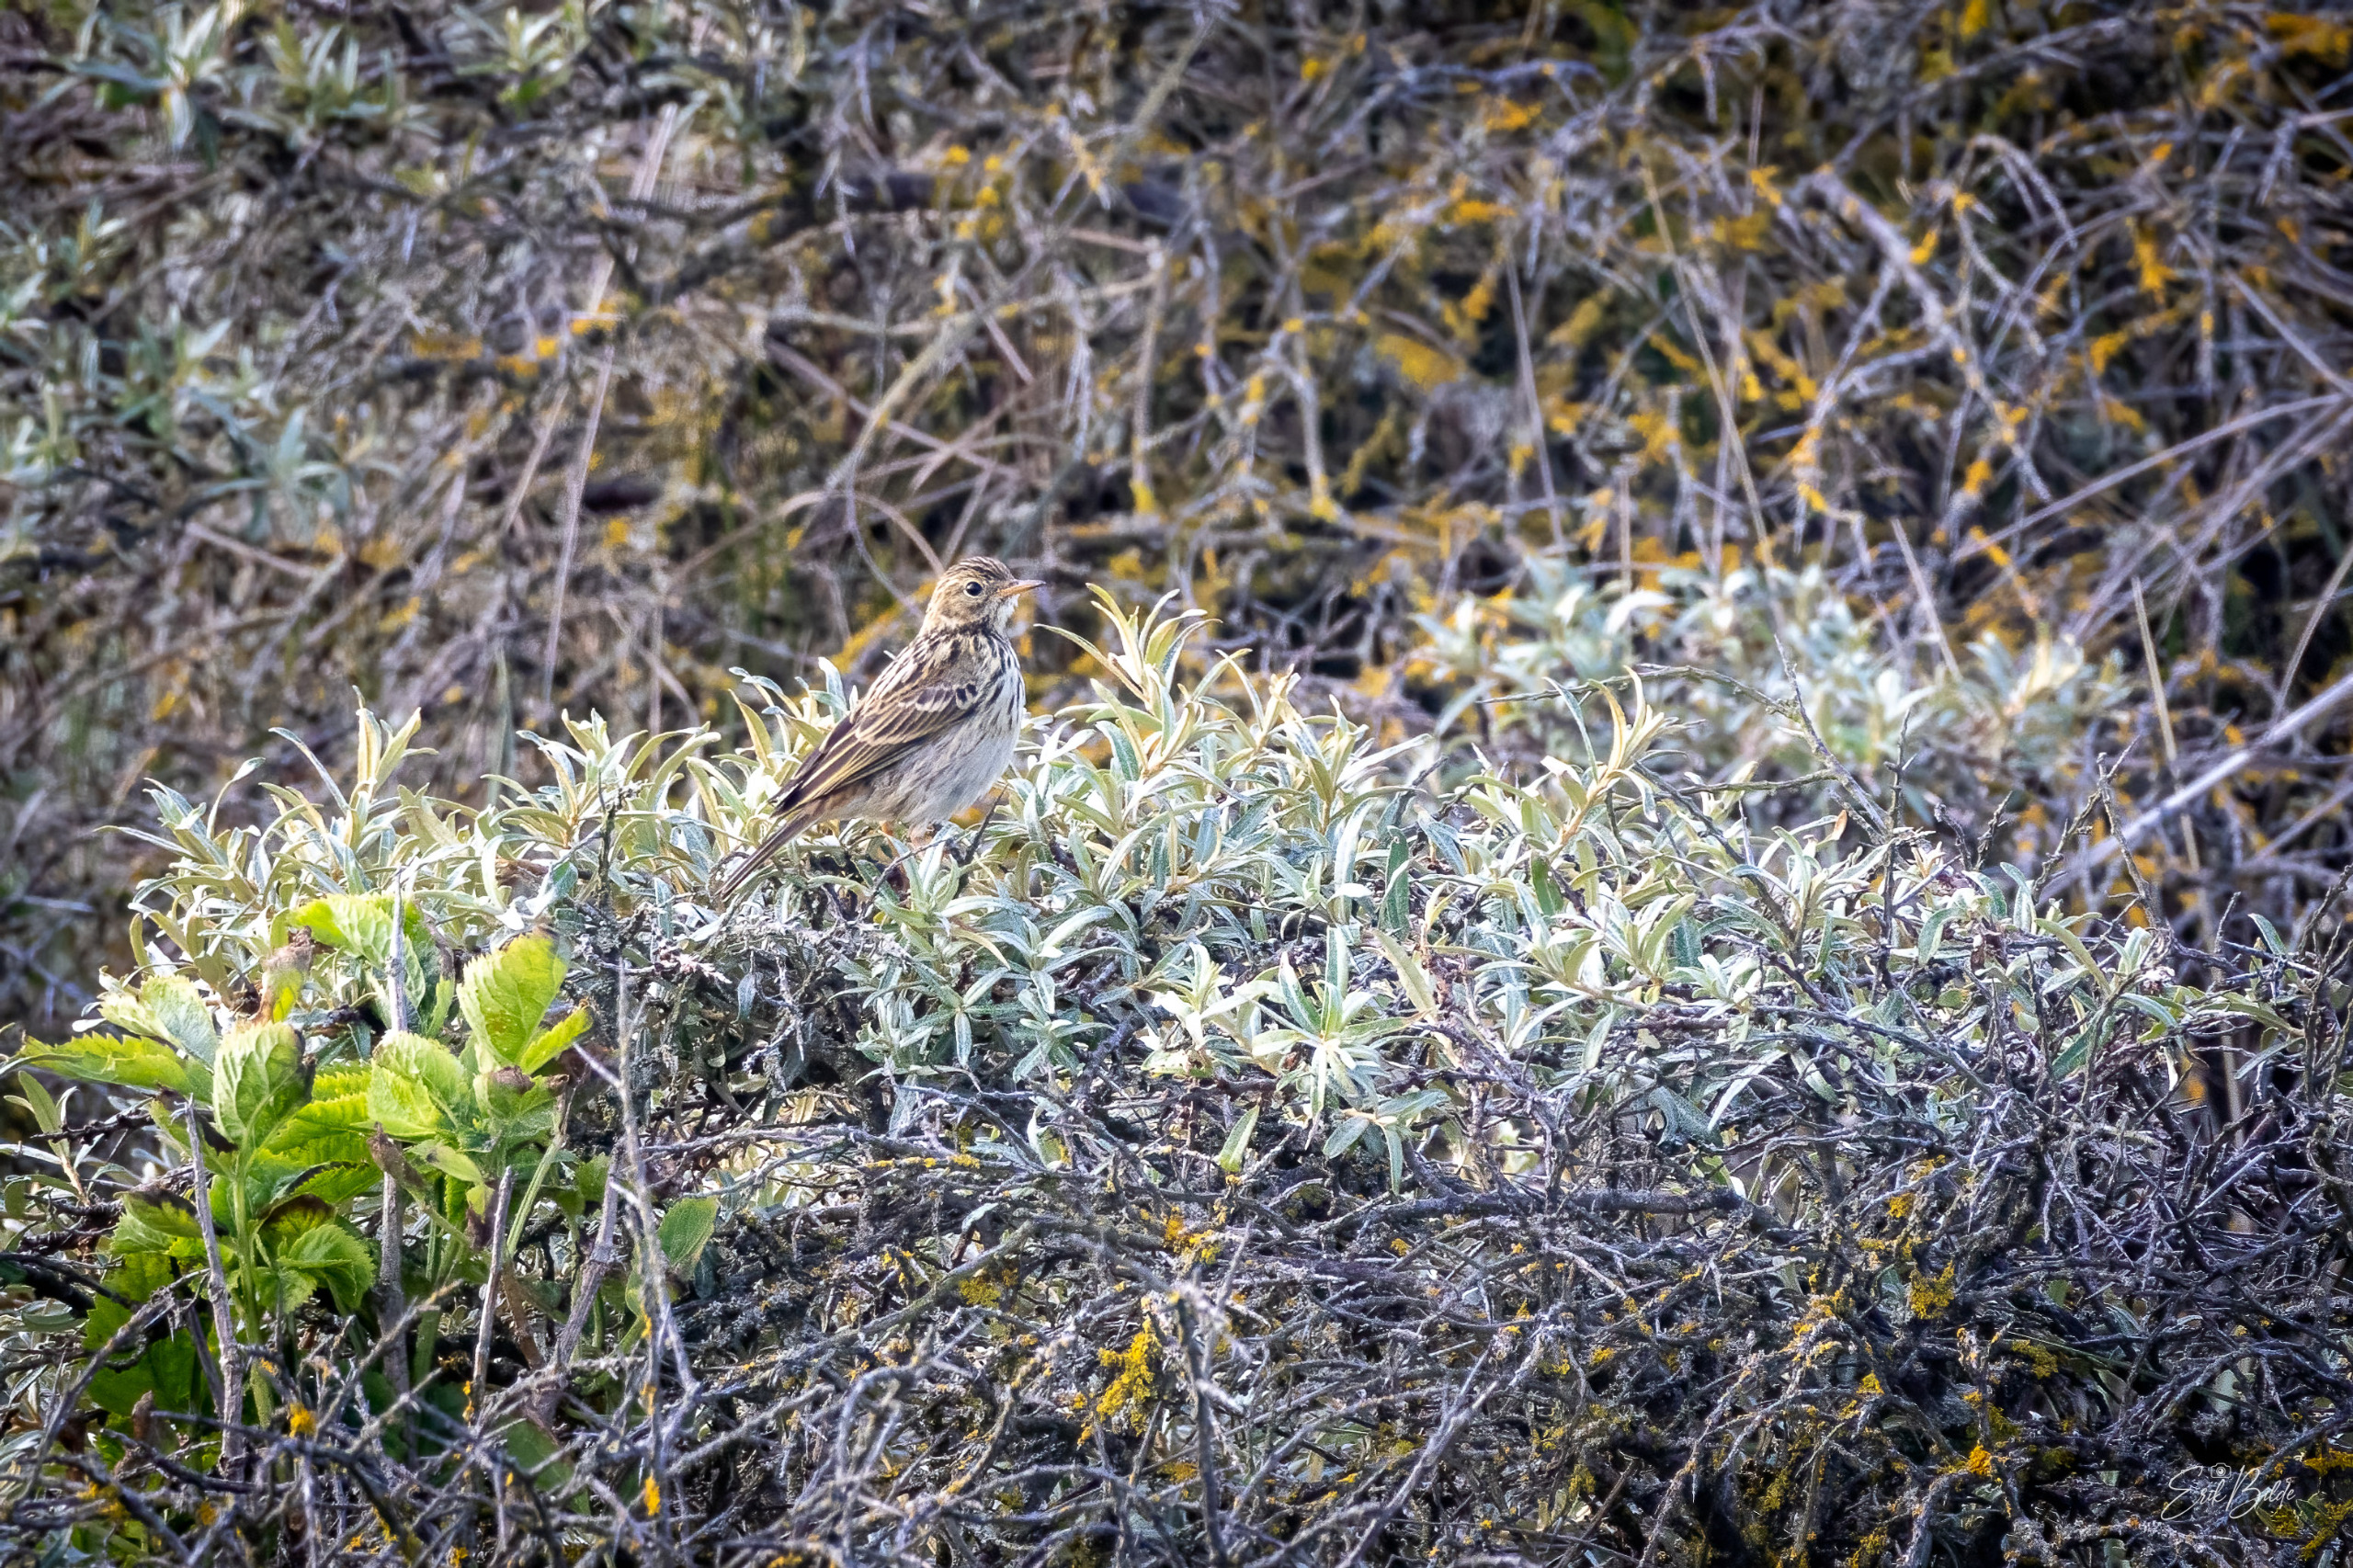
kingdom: Animalia
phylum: Chordata
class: Aves
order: Passeriformes
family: Motacillidae
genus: Anthus
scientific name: Anthus pratensis
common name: Engpiber
